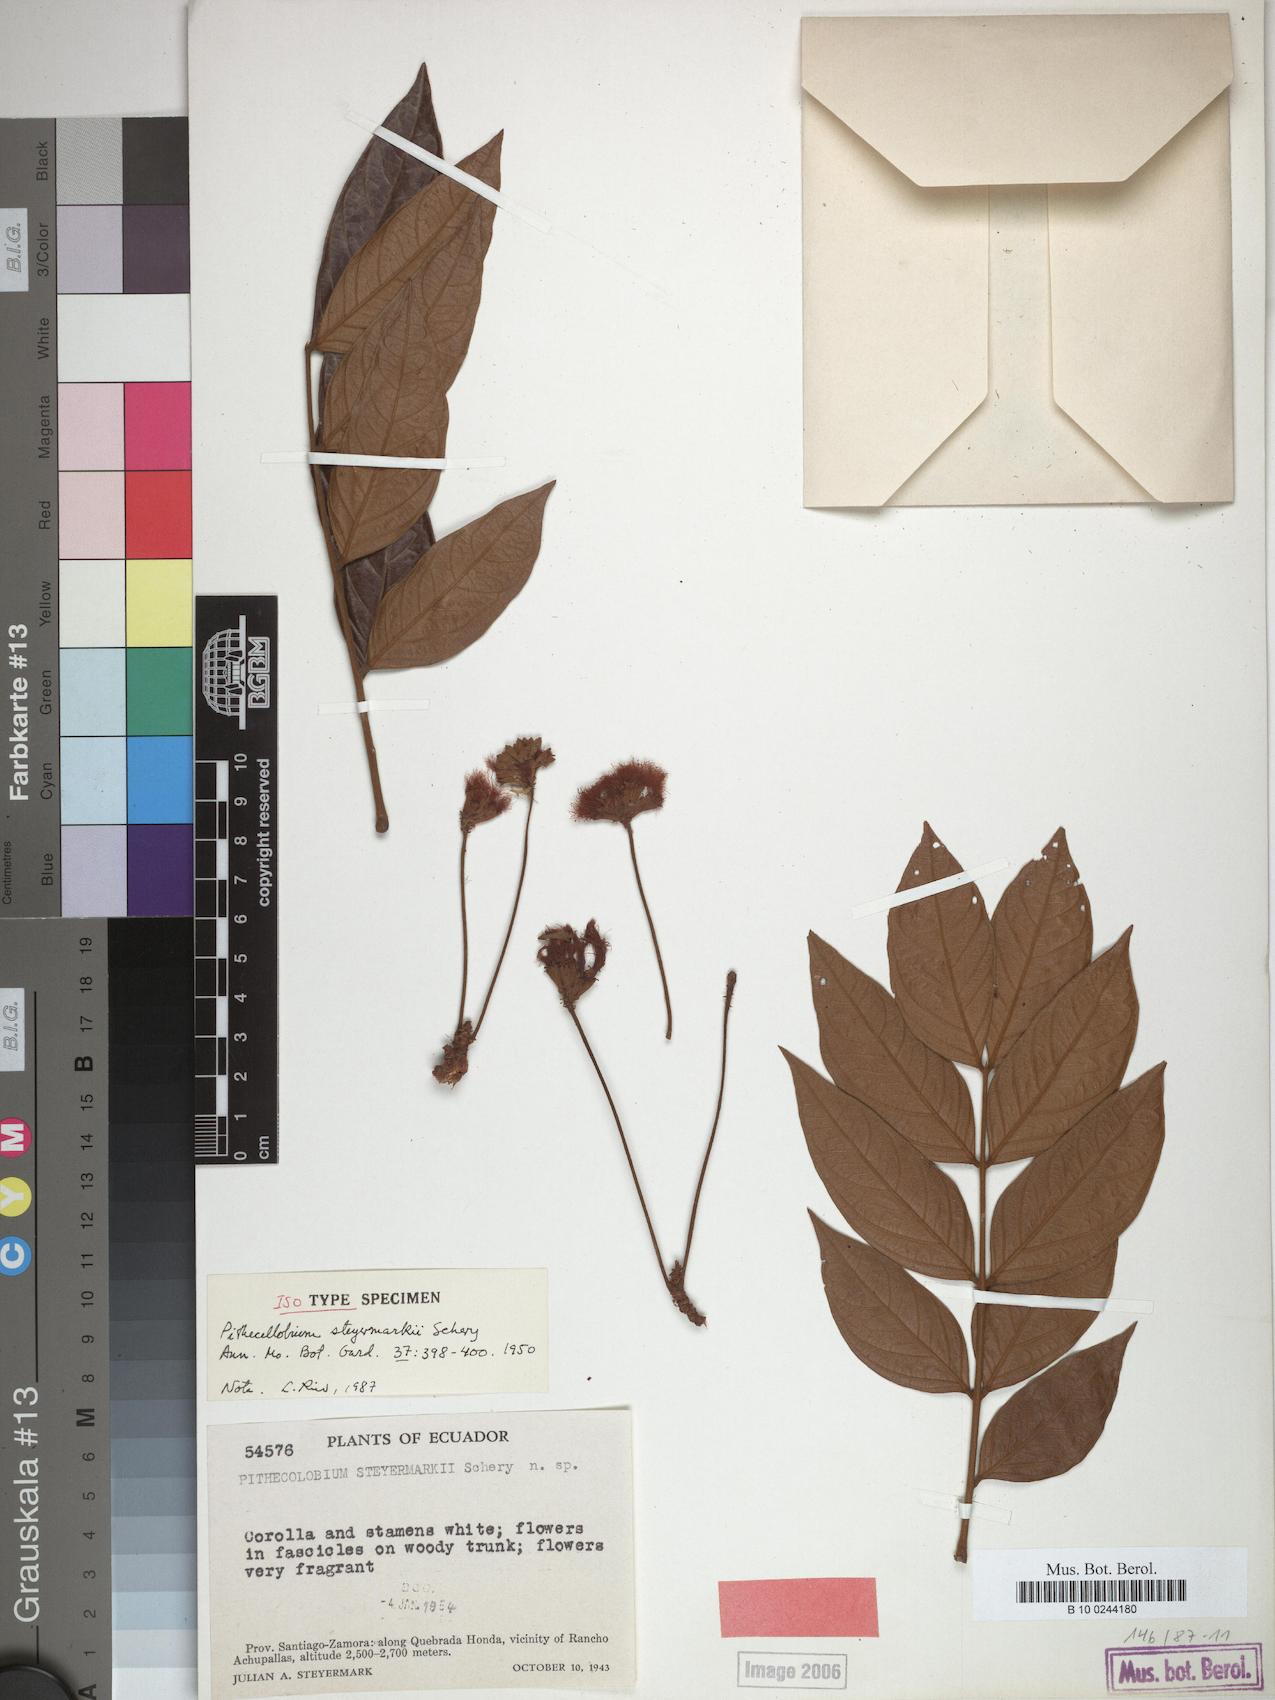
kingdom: Plantae
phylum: Tracheophyta
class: Magnoliopsida
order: Fabales
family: Fabaceae
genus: Zygia
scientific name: Zygia steyermarkii
